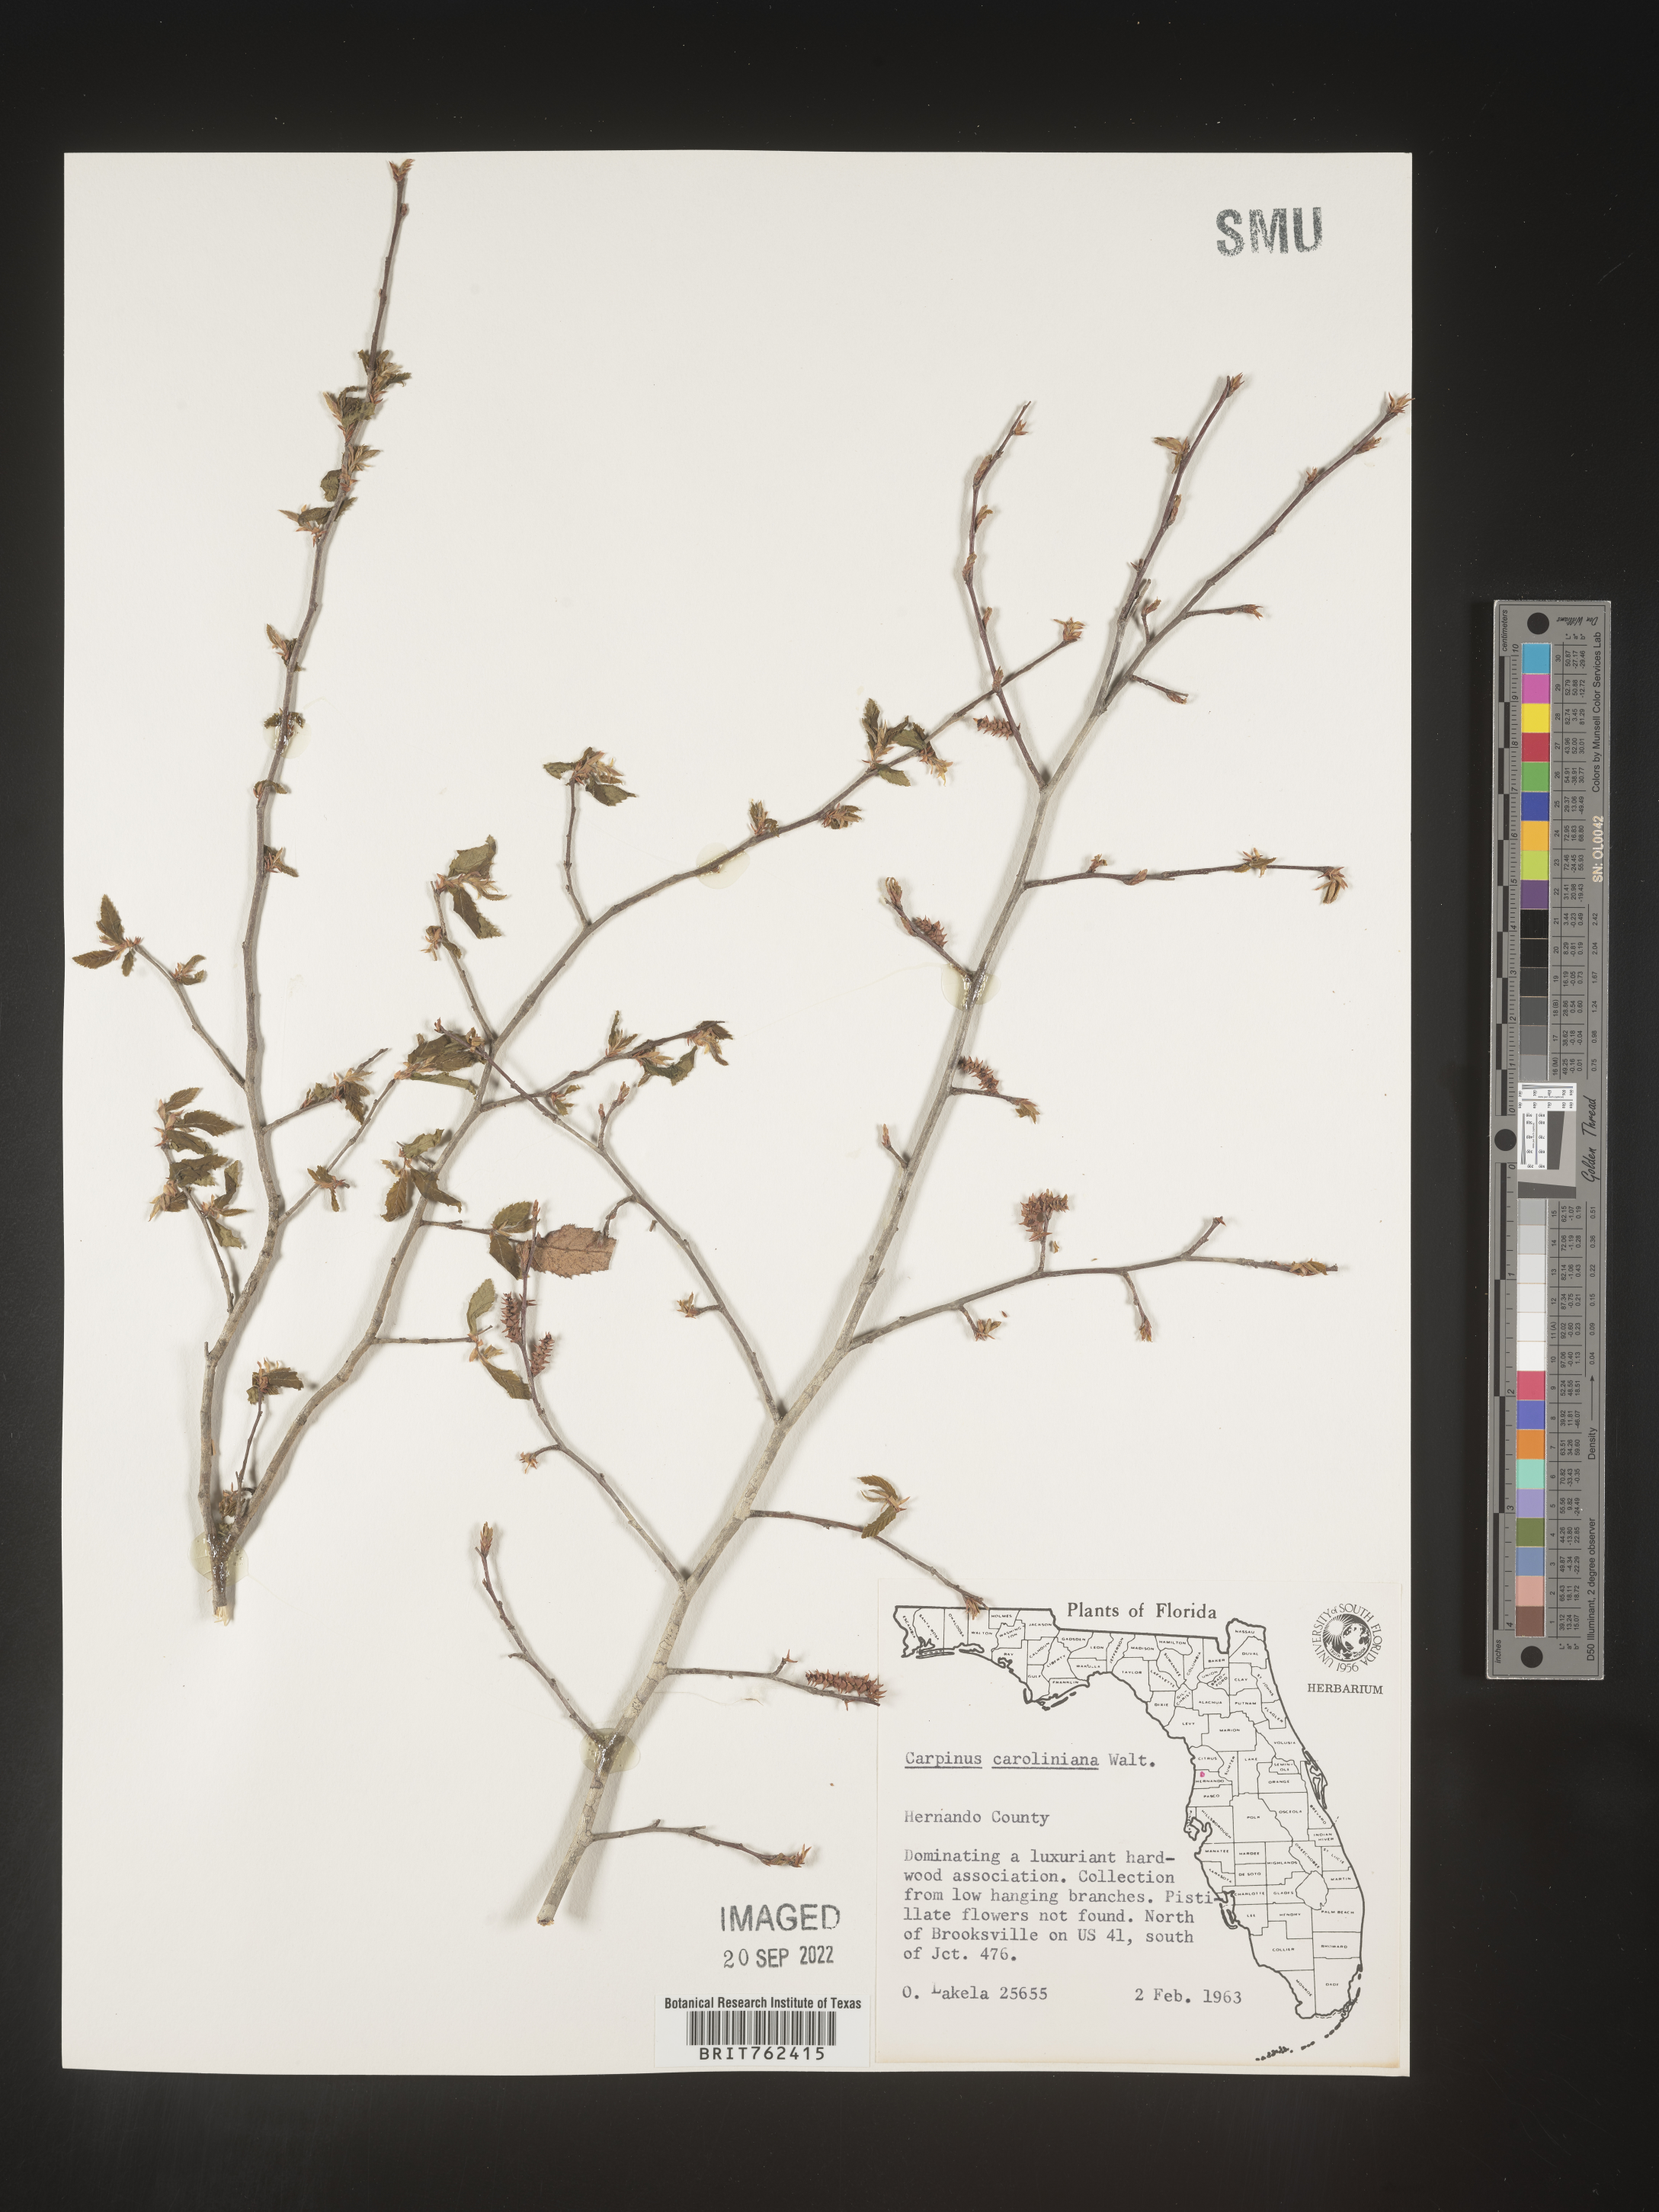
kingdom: Plantae
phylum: Tracheophyta
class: Magnoliopsida
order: Fagales
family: Betulaceae
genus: Carpinus
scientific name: Carpinus caroliniana
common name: American hornbeam
